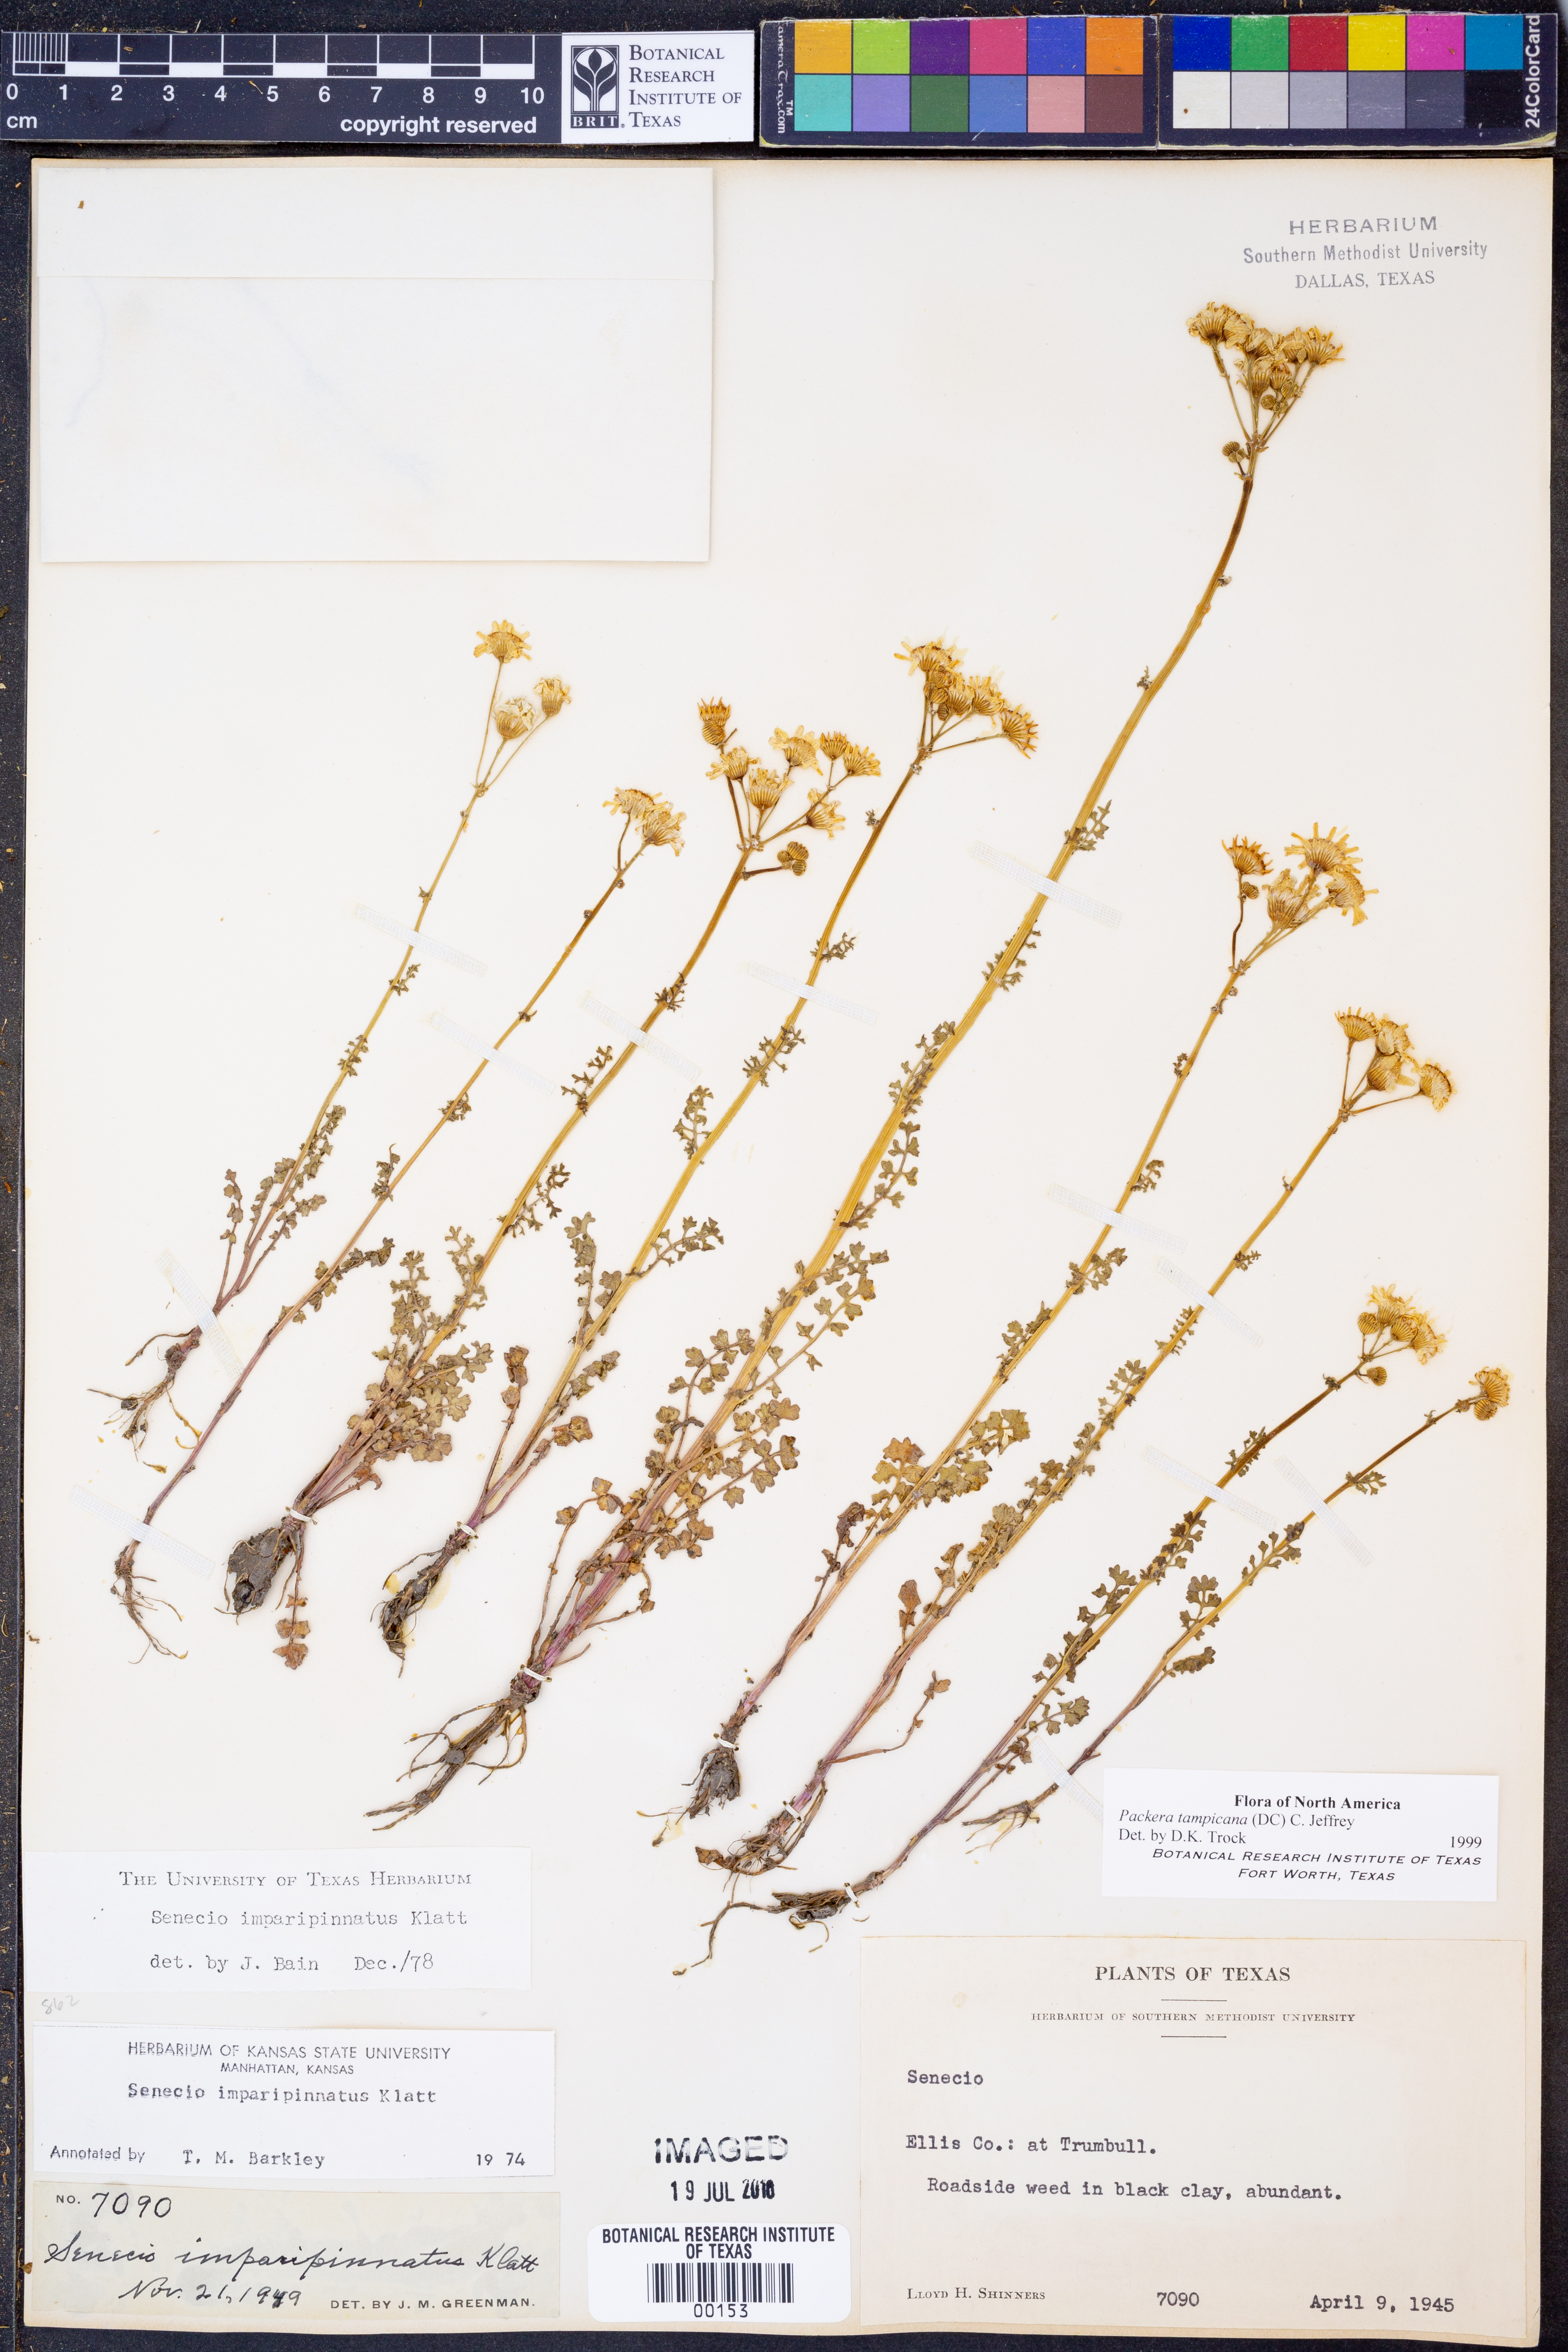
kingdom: Plantae
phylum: Tracheophyta
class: Magnoliopsida
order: Asterales
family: Asteraceae
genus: Packera
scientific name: Packera tampicana
